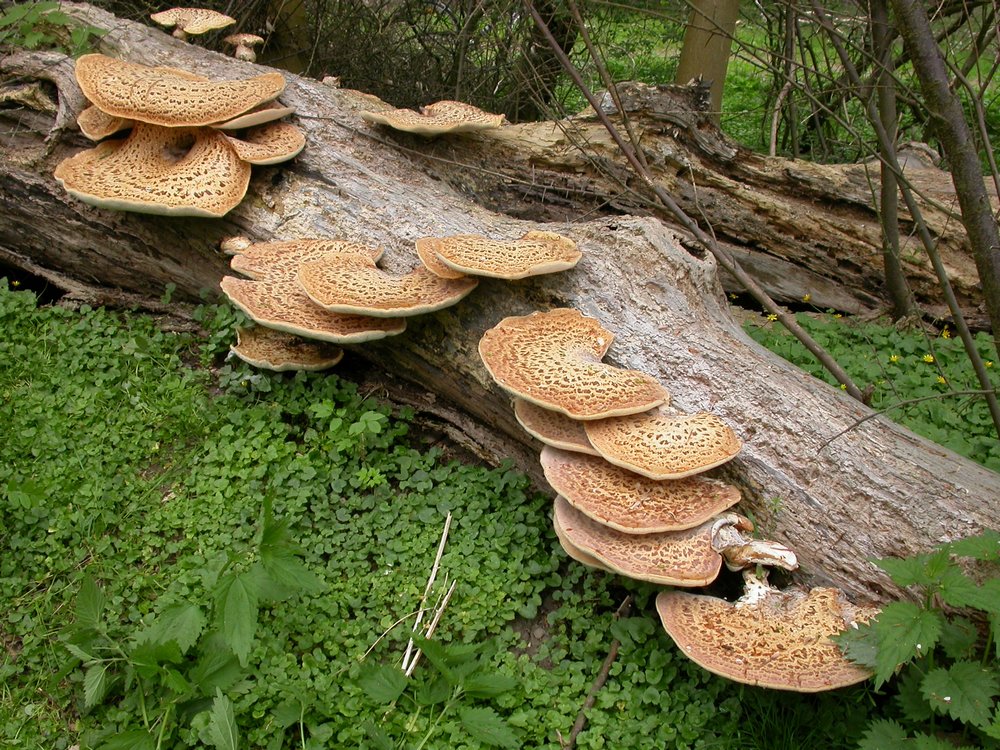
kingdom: Fungi
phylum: Basidiomycota
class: Agaricomycetes
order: Polyporales
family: Polyporaceae
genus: Cerioporus
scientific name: Cerioporus squamosus
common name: skællet stilkporesvamp
